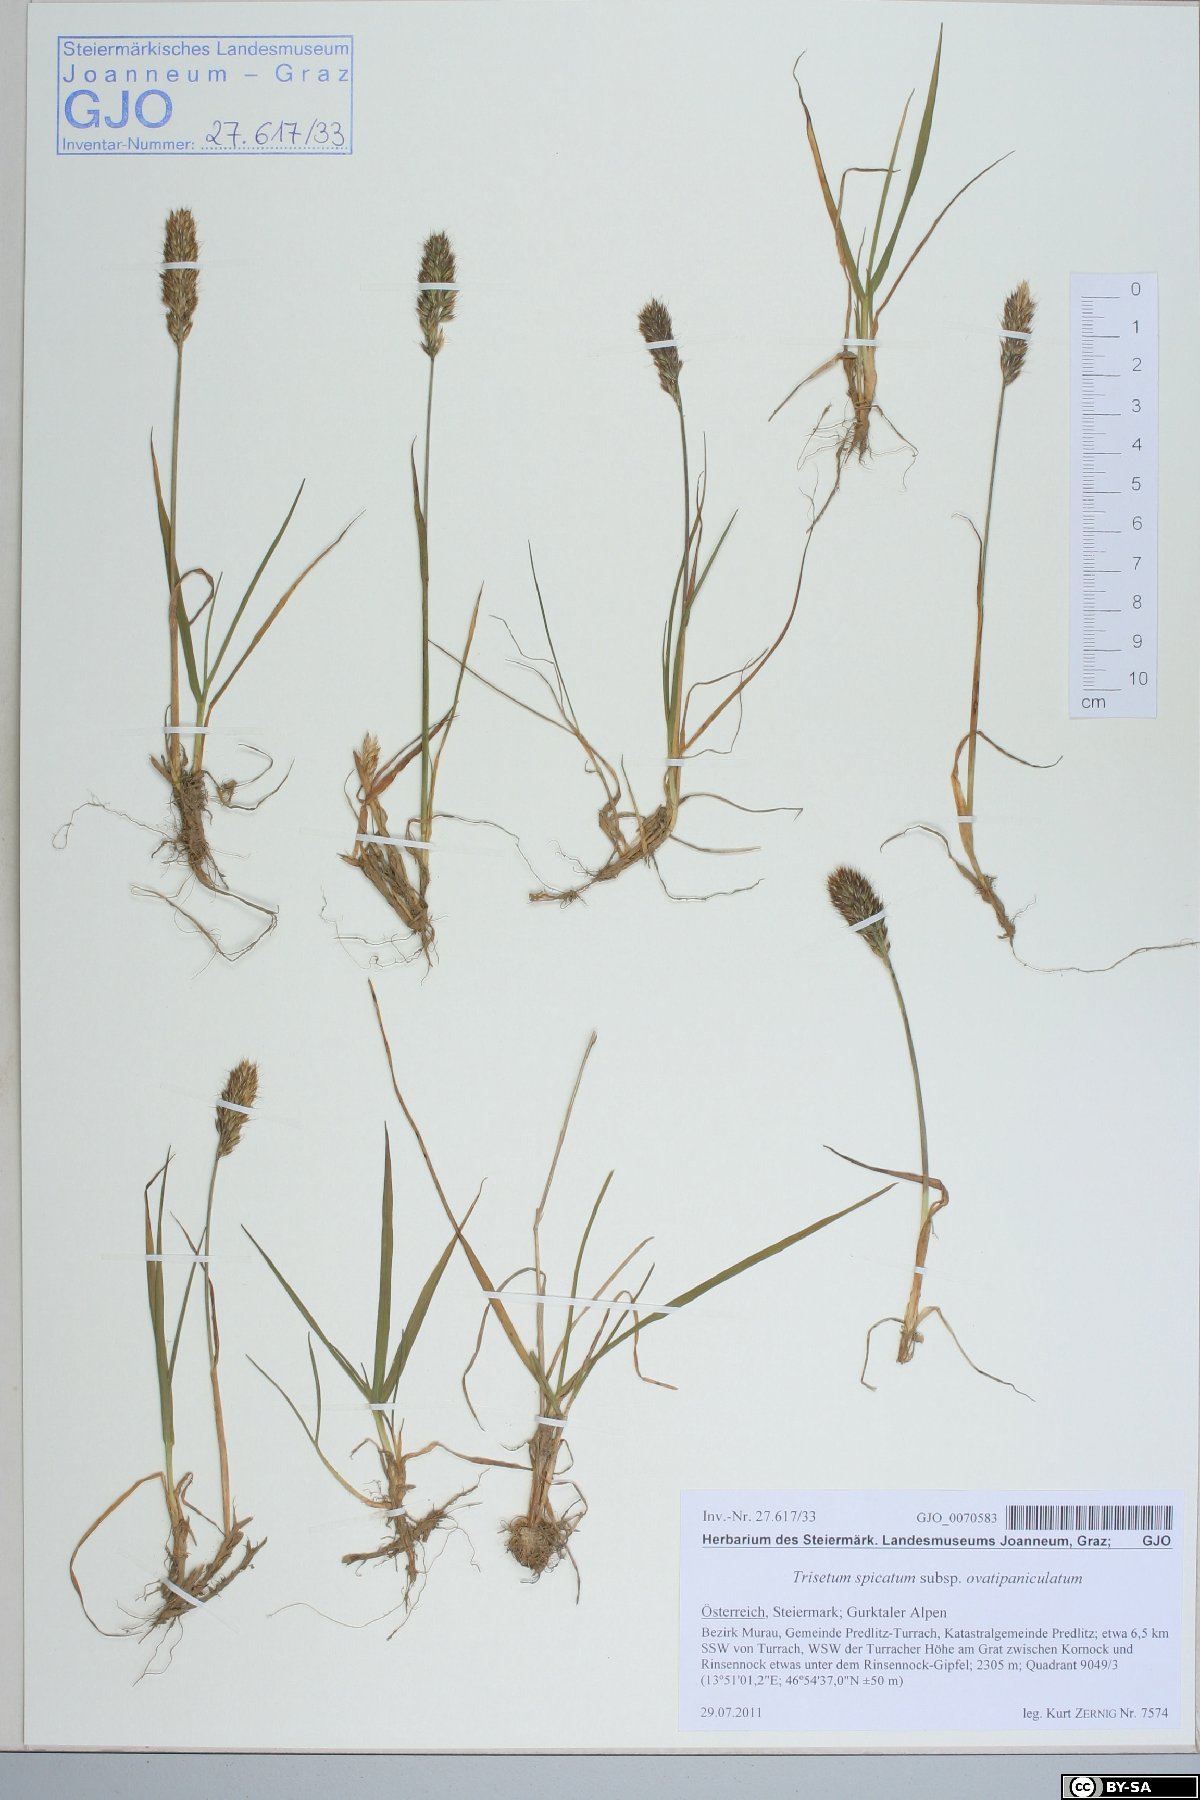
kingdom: Plantae
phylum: Tracheophyta
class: Liliopsida
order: Poales
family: Poaceae
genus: Koeleria
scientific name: Koeleria spicata
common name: Mountain trisetum
